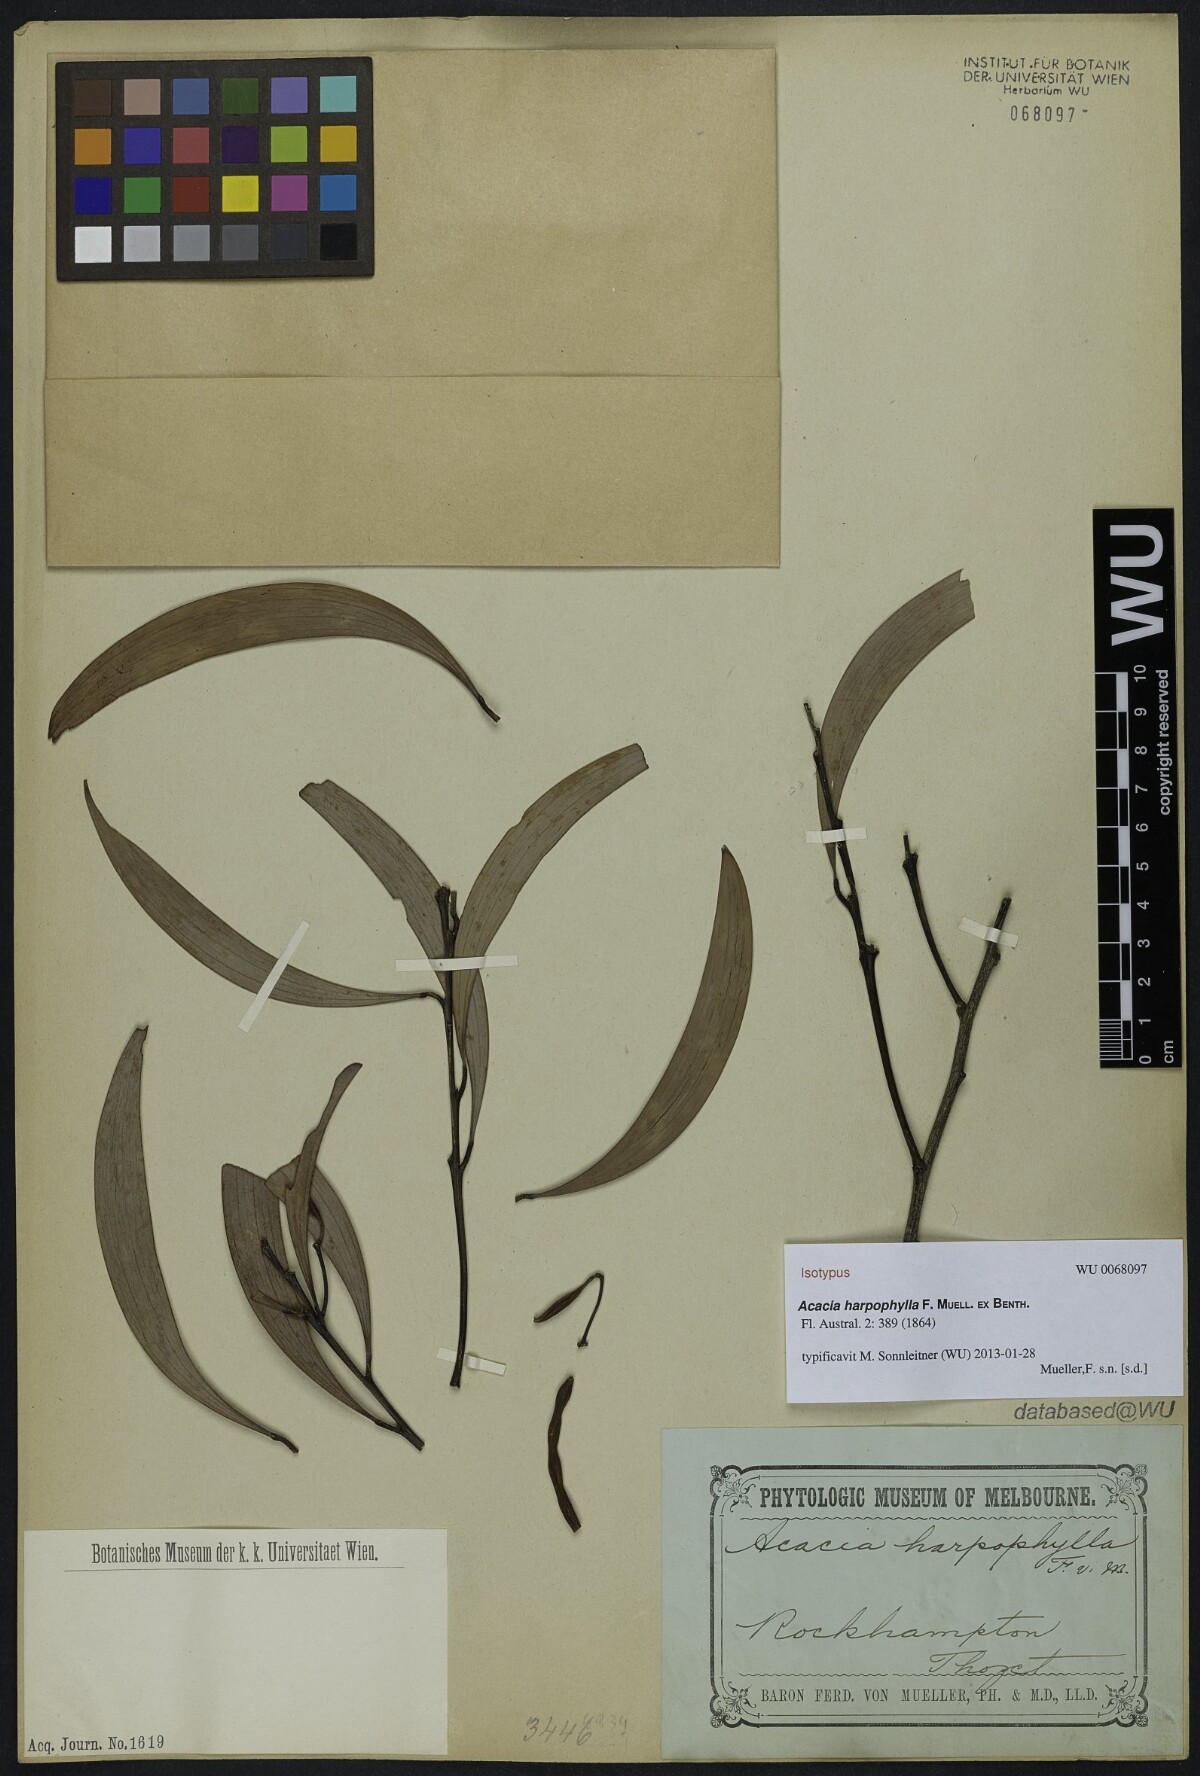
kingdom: Plantae
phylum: Tracheophyta
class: Magnoliopsida
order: Fabales
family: Fabaceae
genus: Acacia
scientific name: Acacia harpophylla
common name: Brigalow
